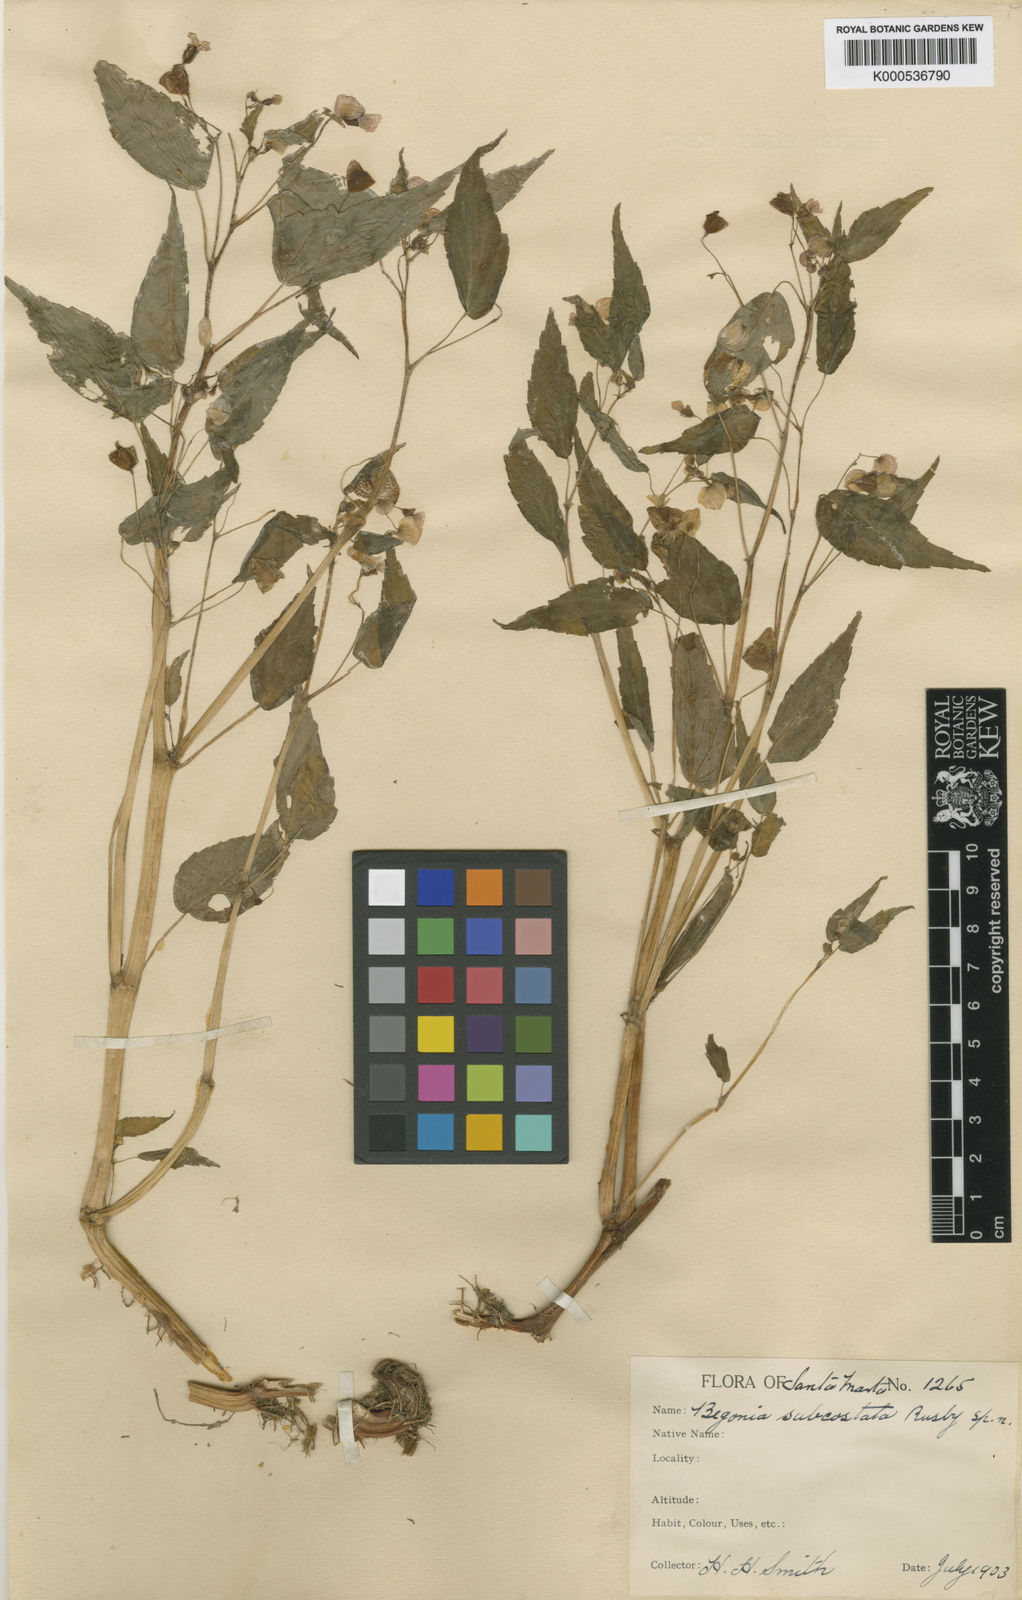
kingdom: Plantae
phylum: Tracheophyta
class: Magnoliopsida
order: Cucurbitales
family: Begoniaceae
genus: Begonia
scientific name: Begonia subcostata
